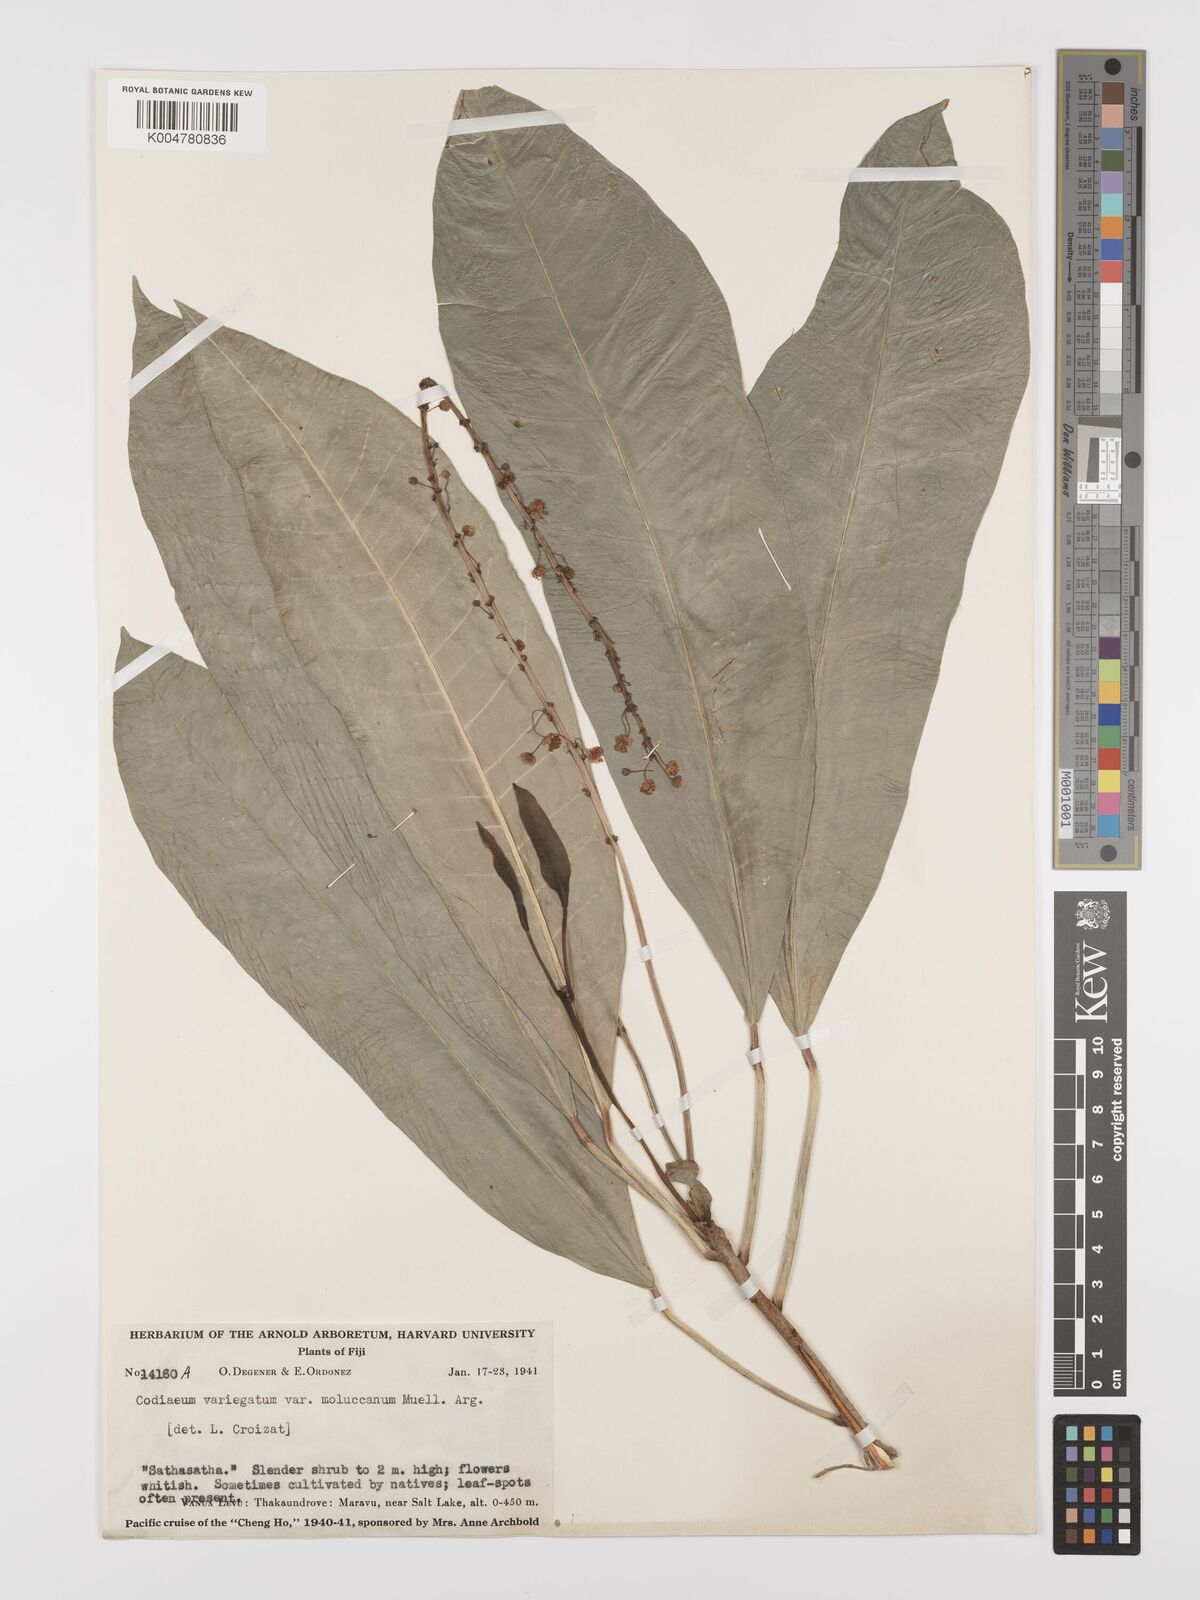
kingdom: Plantae
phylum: Tracheophyta
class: Magnoliopsida
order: Malpighiales
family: Euphorbiaceae
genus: Codiaeum
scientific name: Codiaeum variegatum
